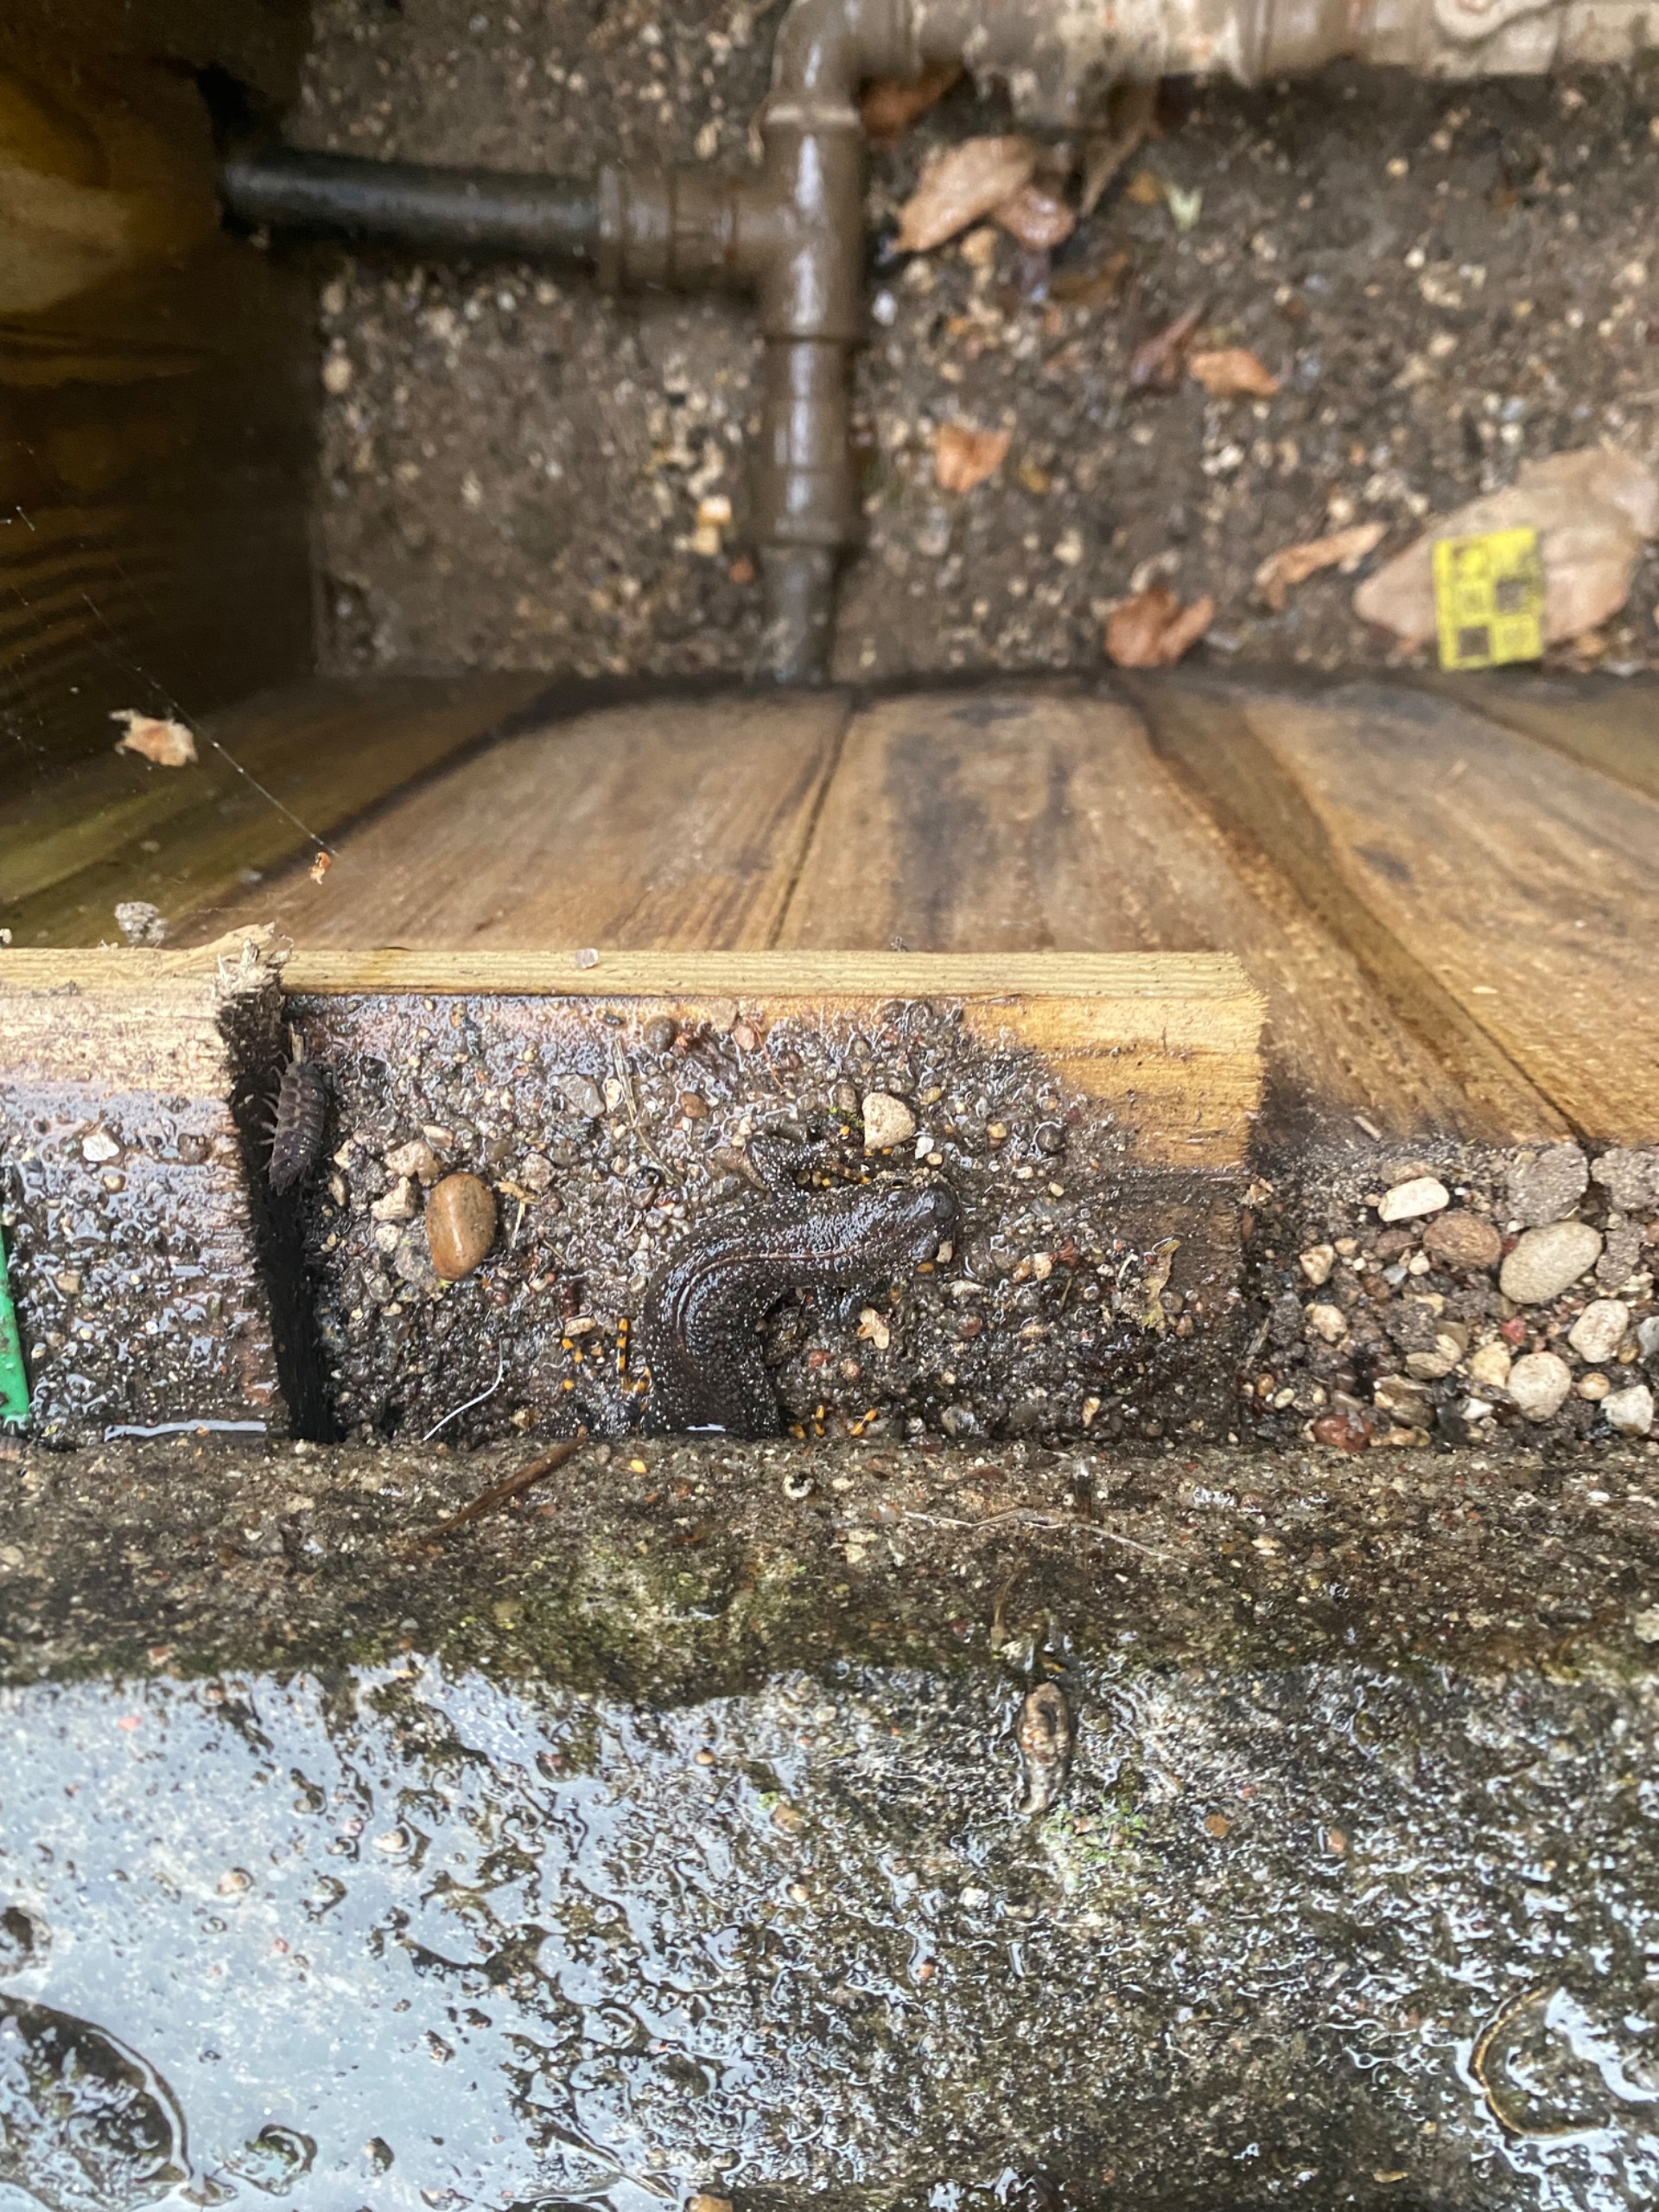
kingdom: Animalia
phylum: Chordata
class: Amphibia
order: Caudata
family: Salamandridae
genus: Triturus
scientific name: Triturus cristatus
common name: Stor vandsalamander
